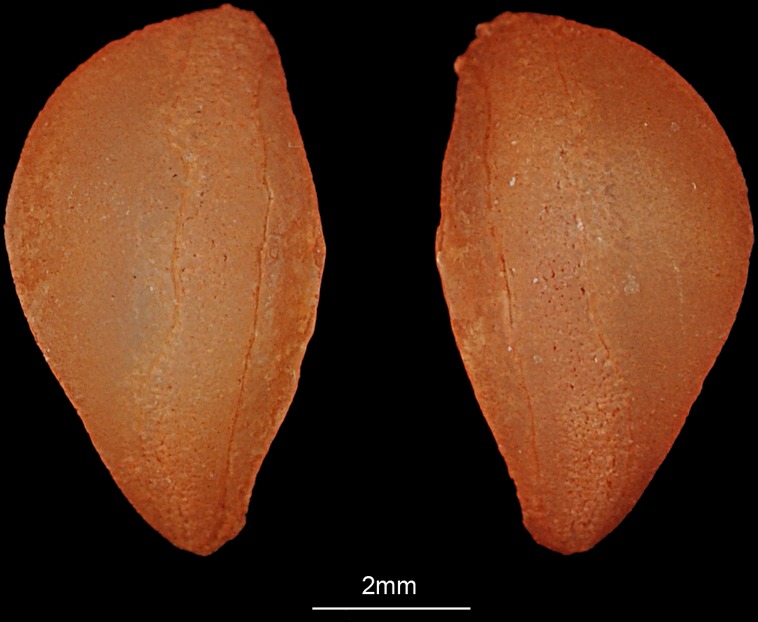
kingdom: Animalia
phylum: Chordata
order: Perciformes
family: Sillaginidae
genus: Sillago
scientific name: Sillago sihama
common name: Silver sillago
